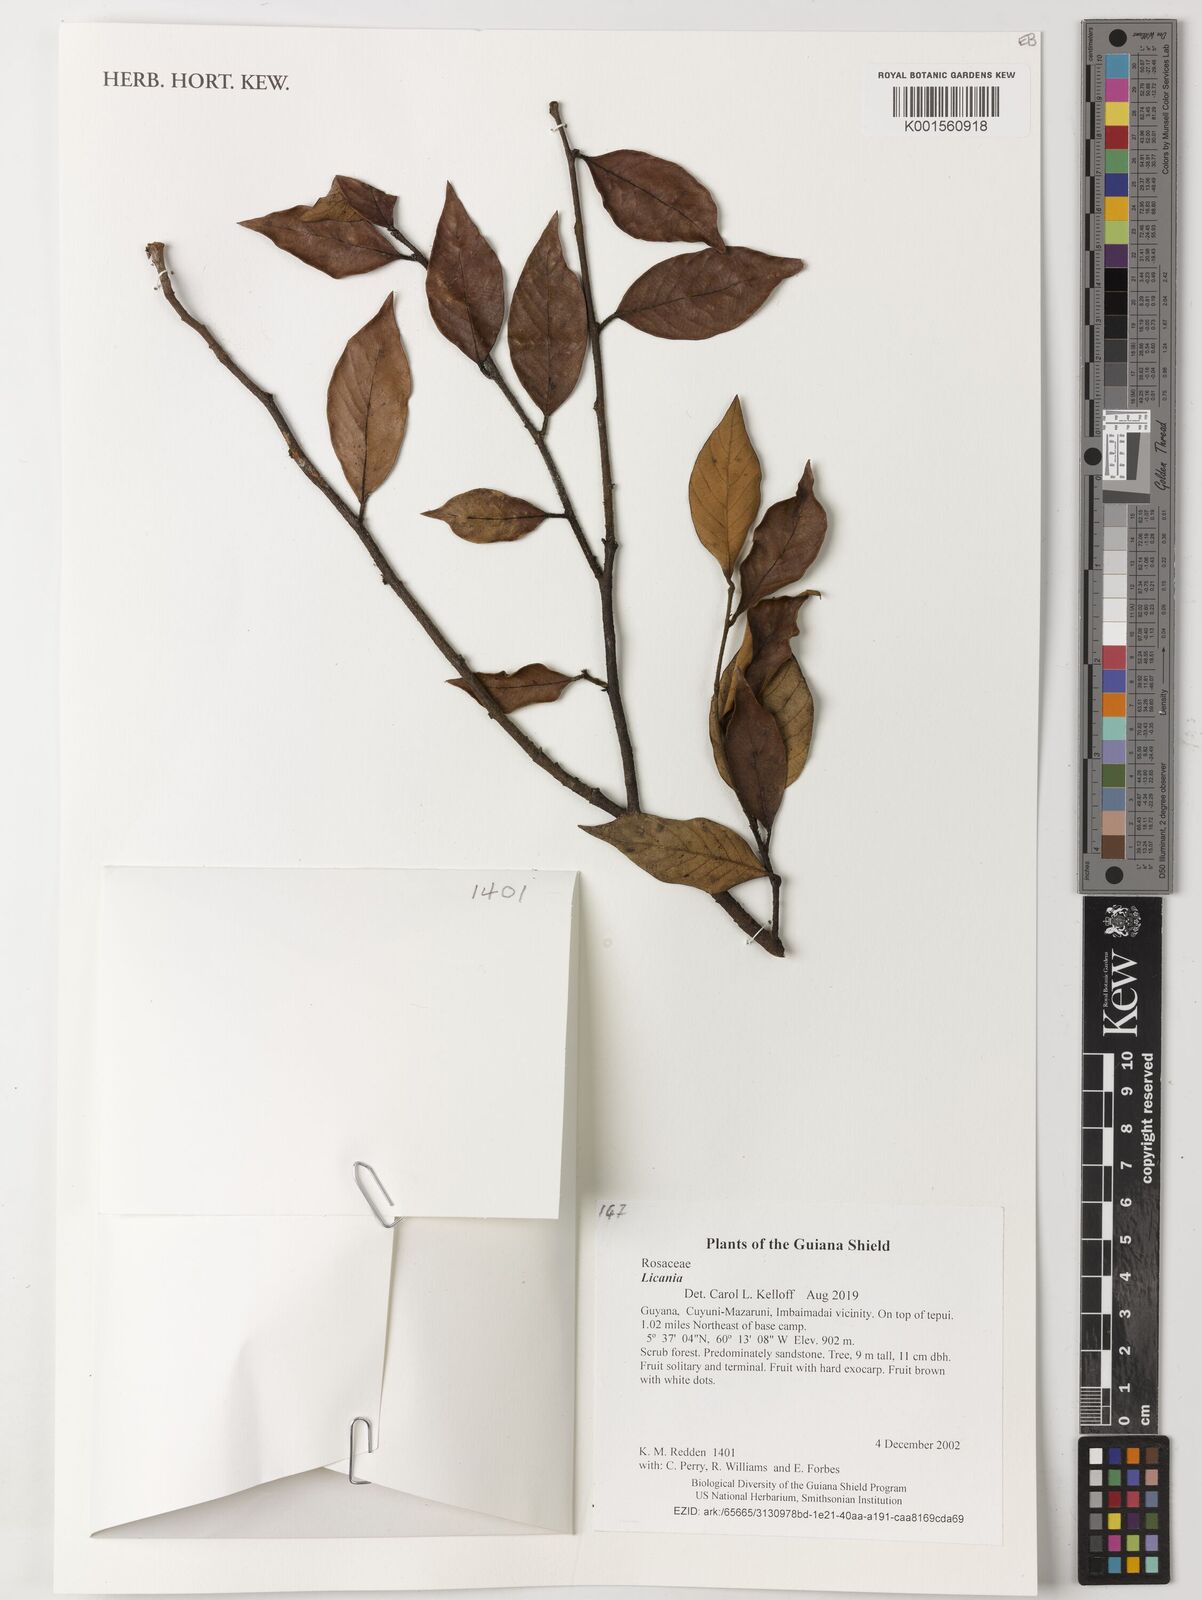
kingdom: Plantae
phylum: Tracheophyta
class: Magnoliopsida
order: Malpighiales
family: Chrysobalanaceae
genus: Licania
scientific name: Licania
